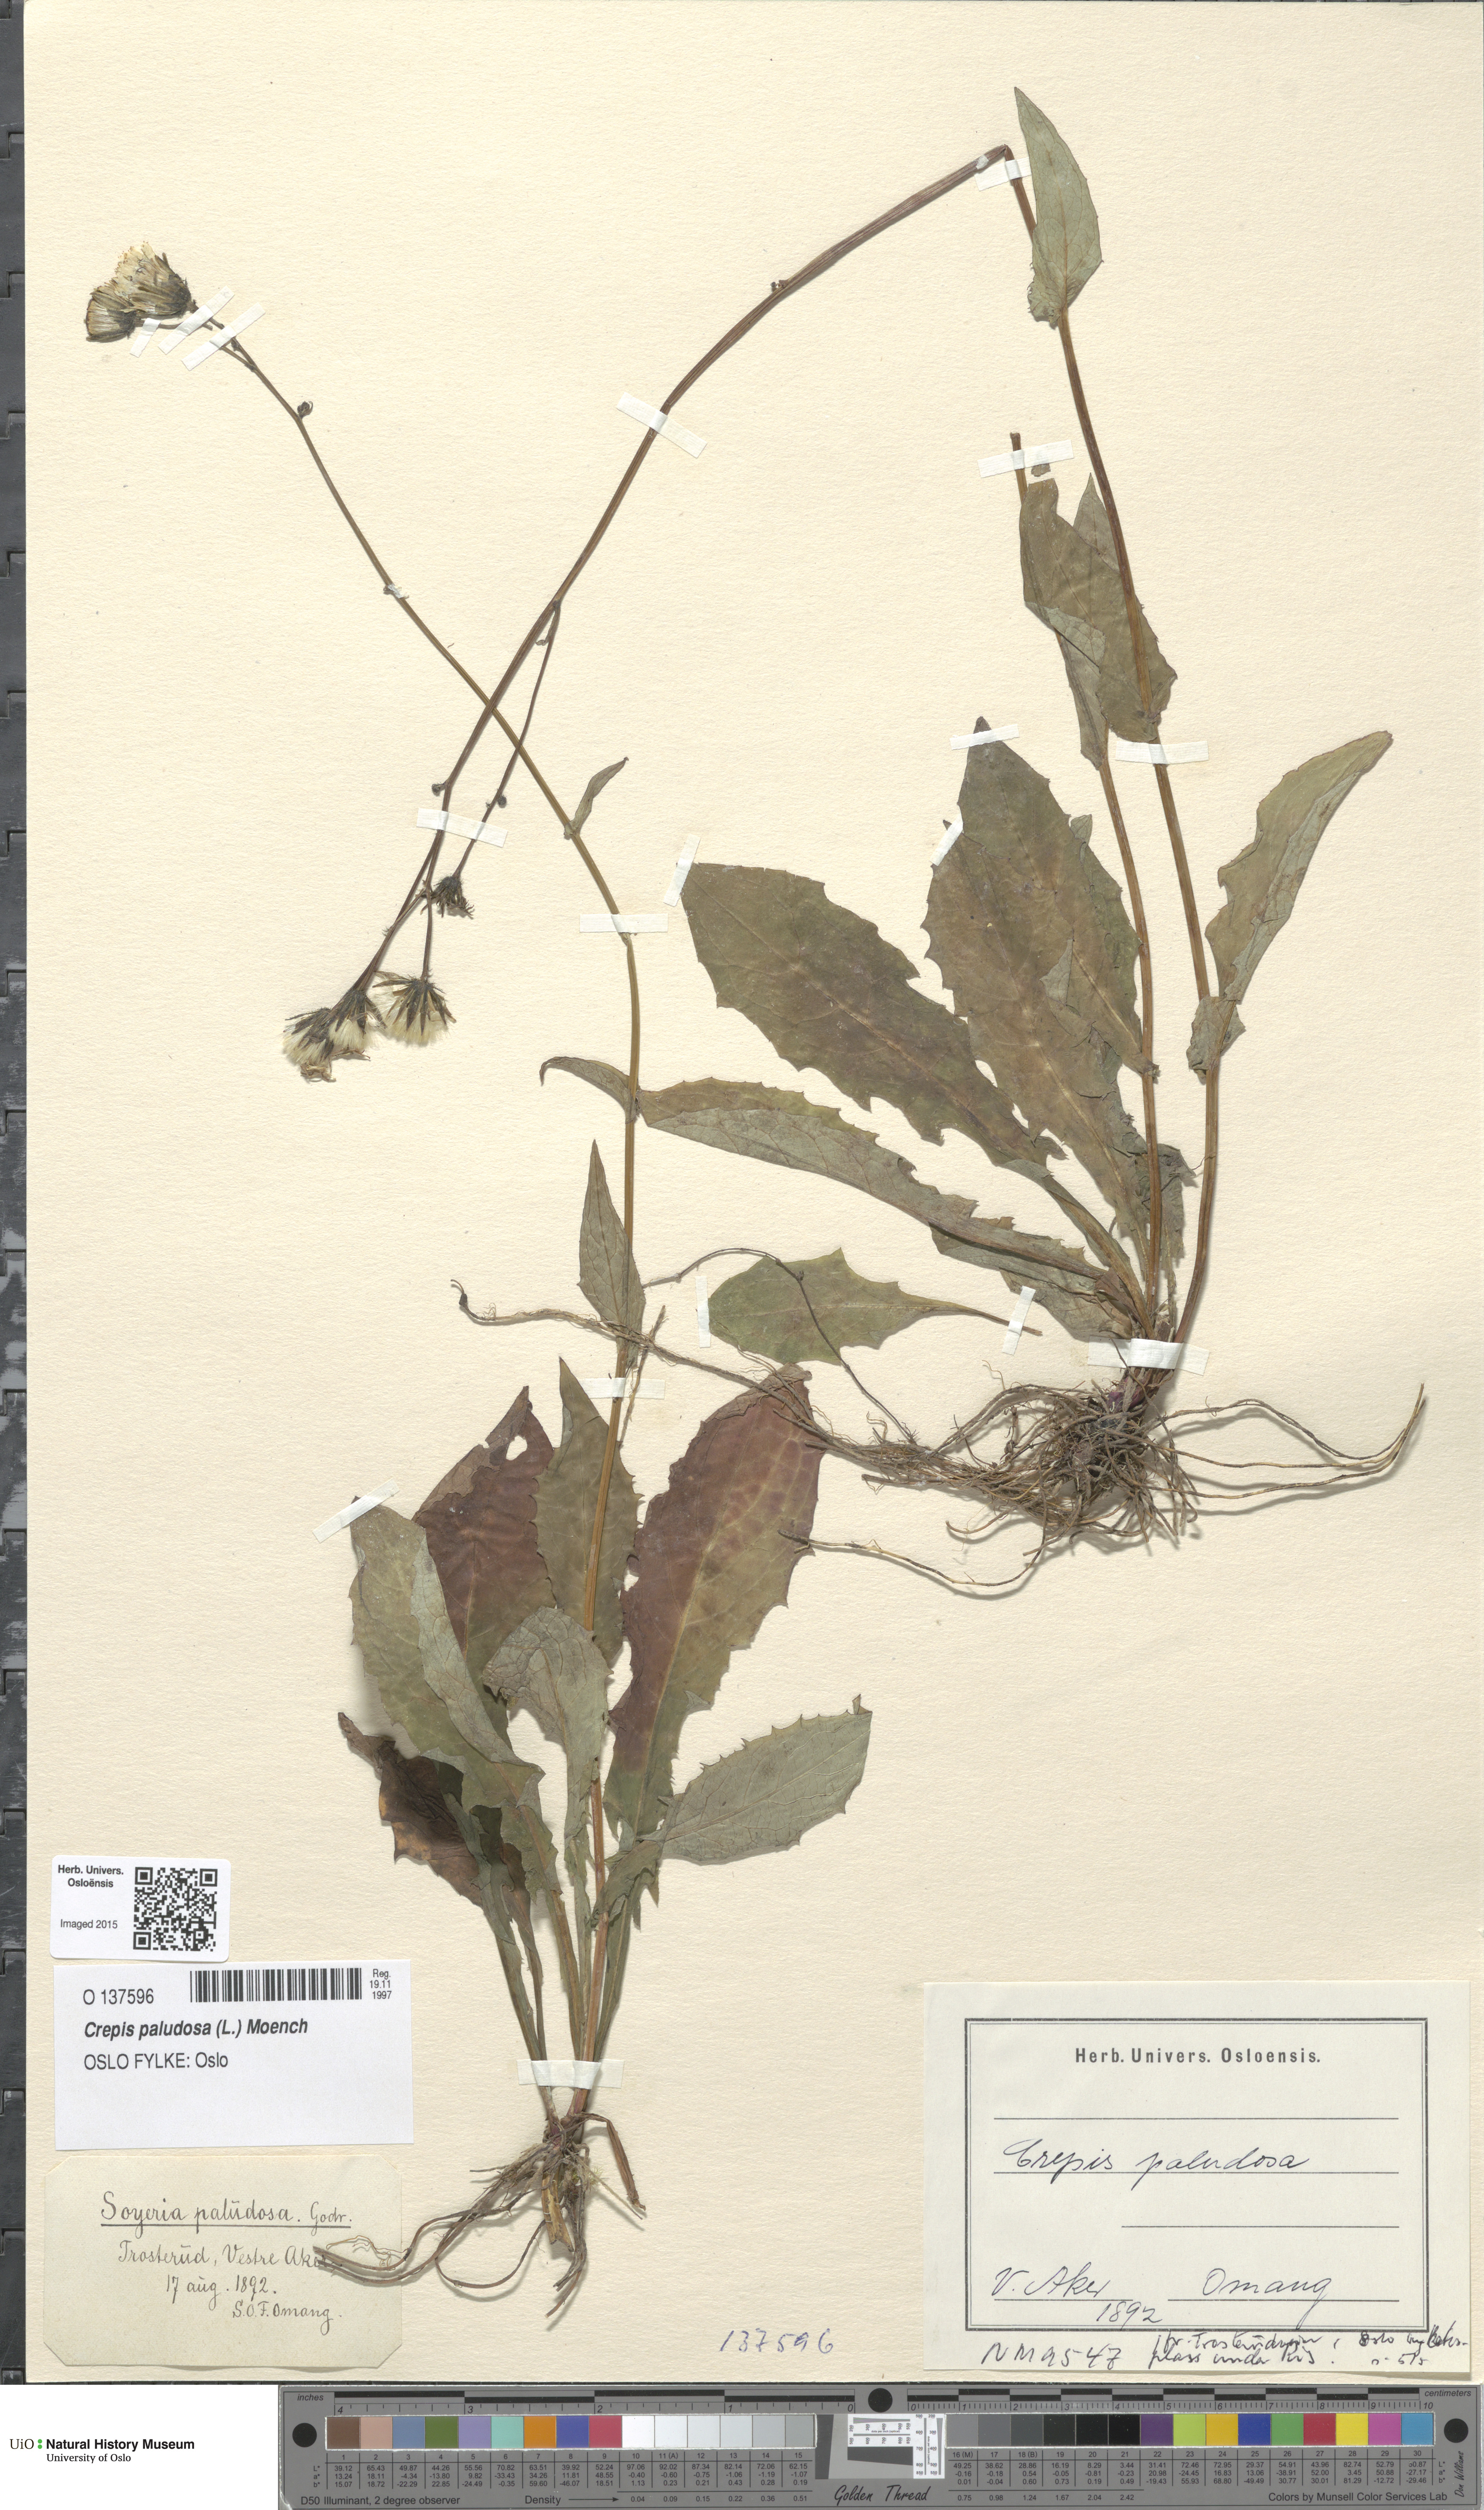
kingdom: Plantae
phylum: Tracheophyta
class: Magnoliopsida
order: Asterales
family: Asteraceae
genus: Crepis
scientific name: Crepis paludosa
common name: Marsh hawk's-beard
